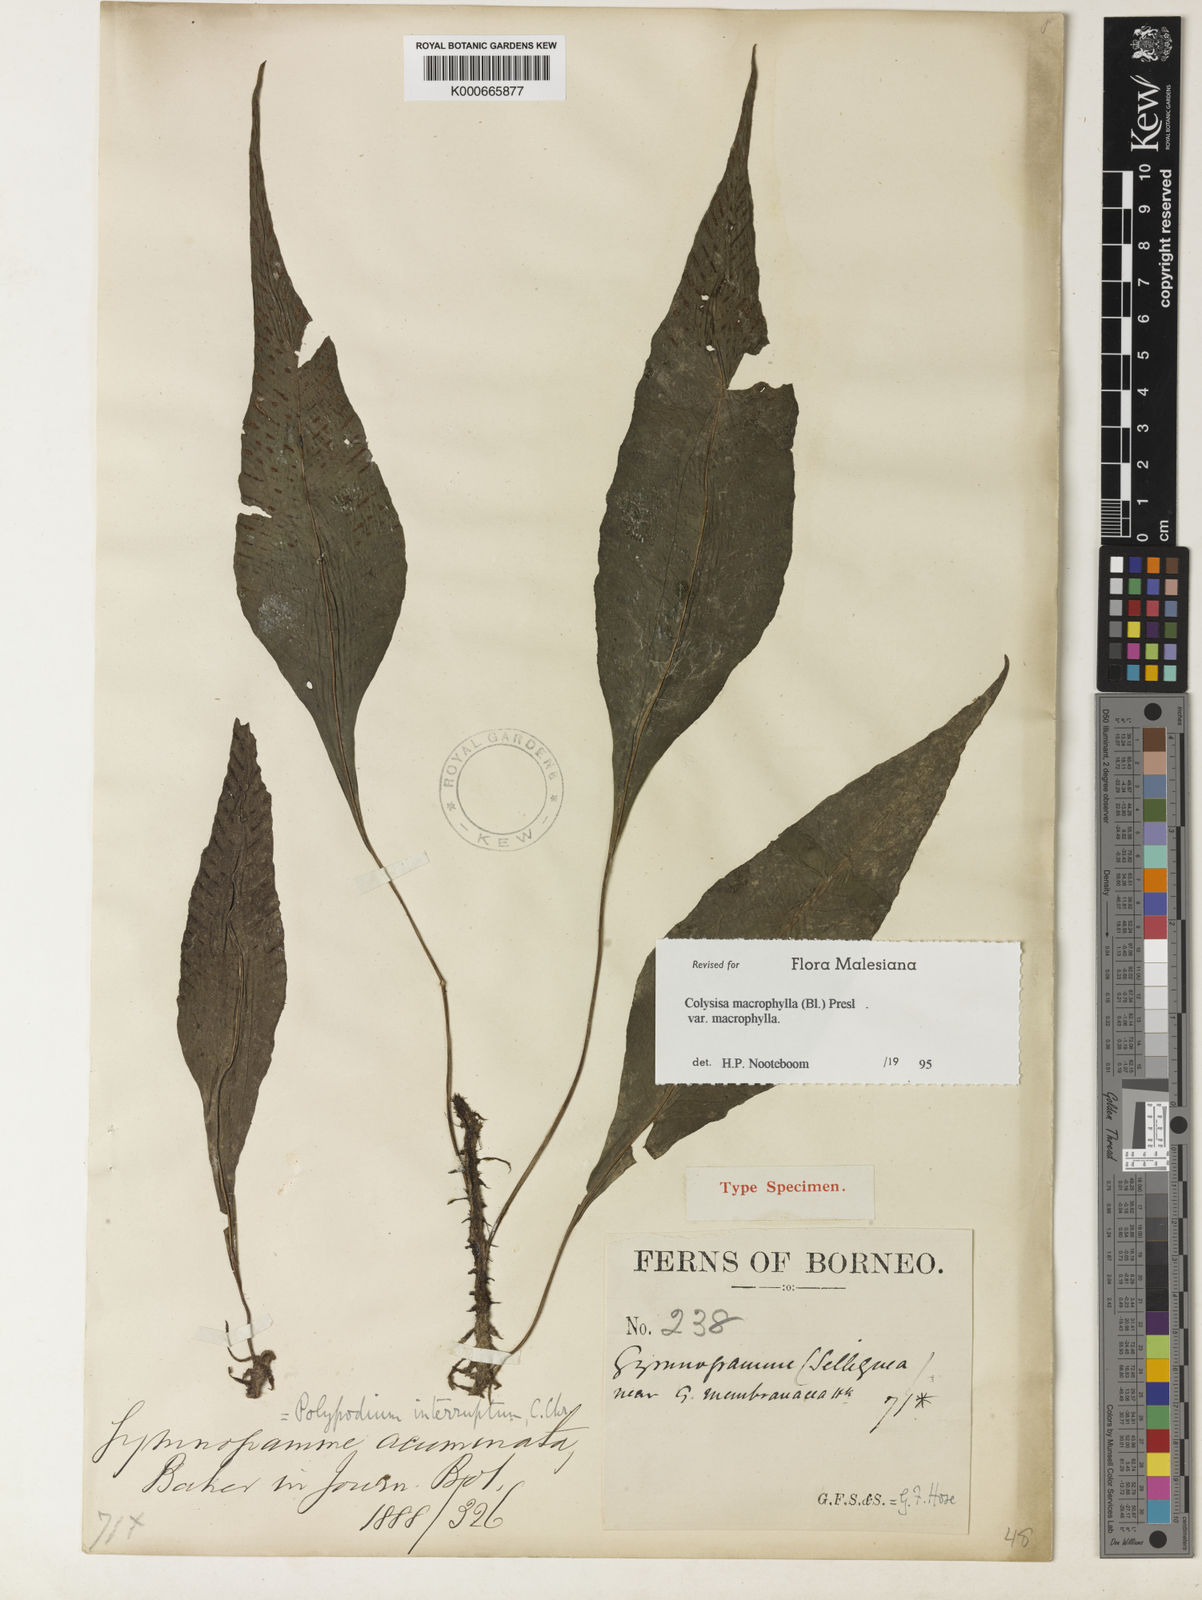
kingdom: Plantae
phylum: Tracheophyta
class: Polypodiopsida
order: Polypodiales
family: Polypodiaceae
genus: Leptochilus
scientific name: Leptochilus macrophyllus
